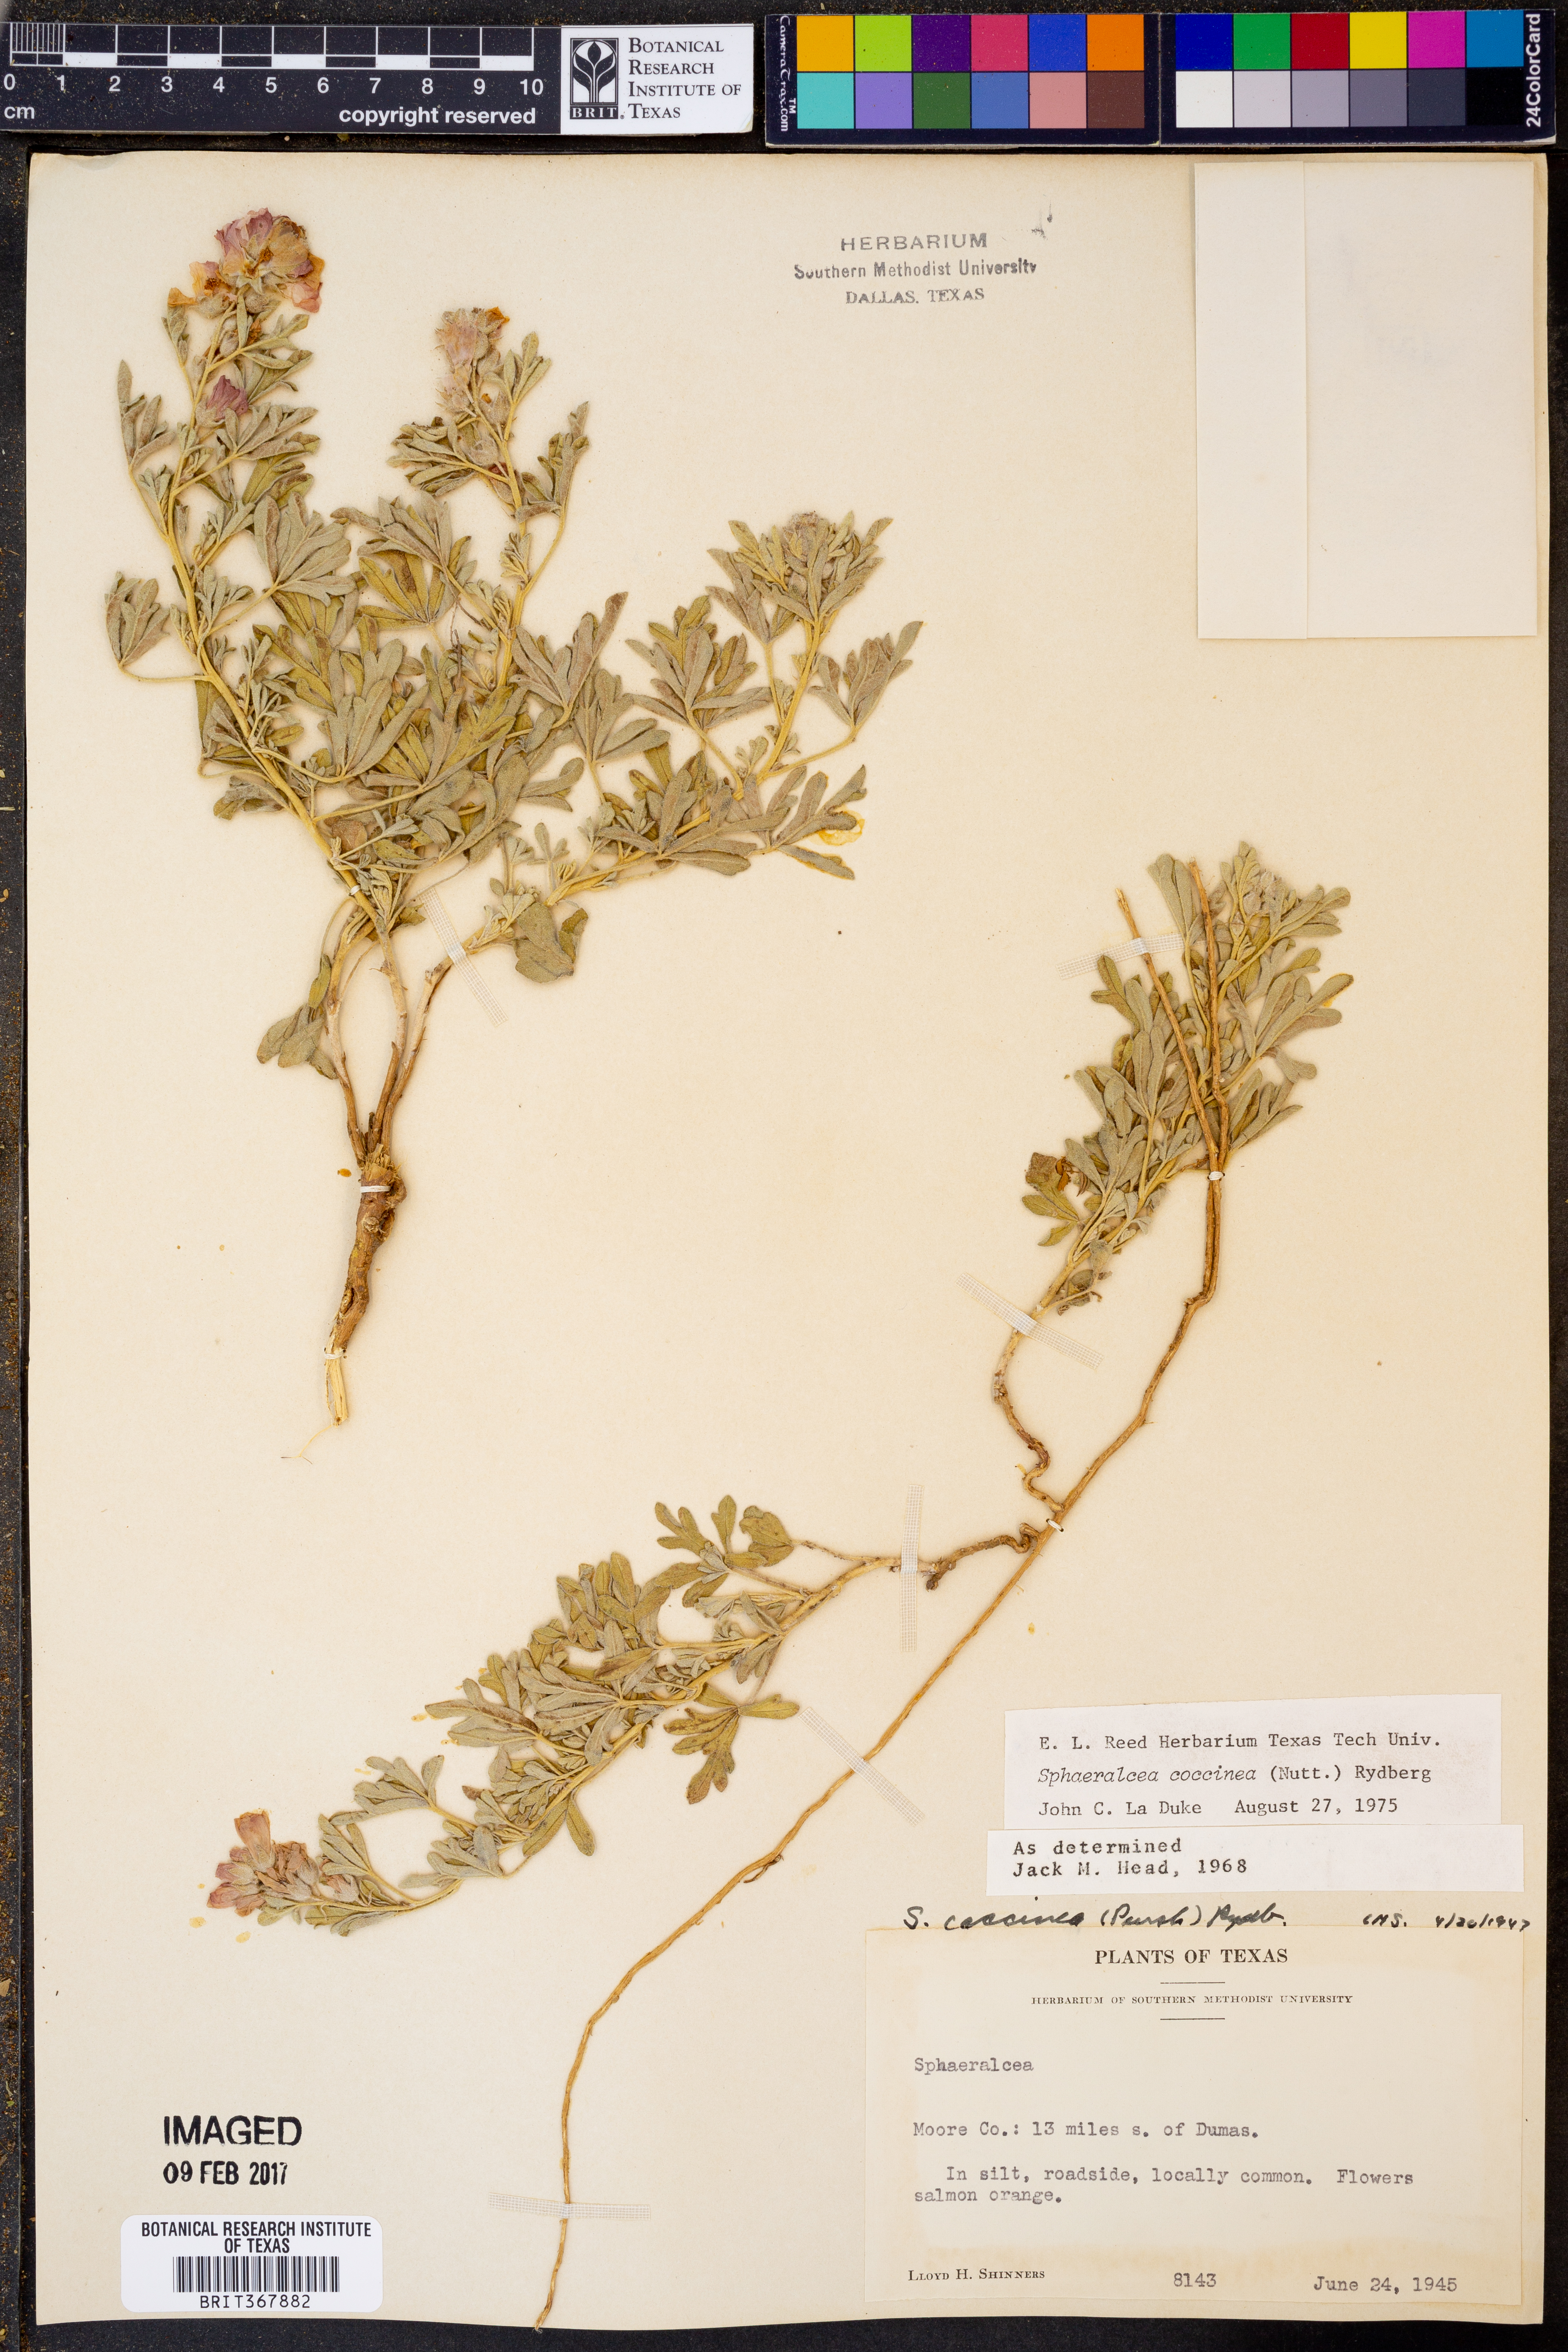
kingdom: Plantae
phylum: Tracheophyta
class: Magnoliopsida
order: Malvales
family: Malvaceae
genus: Sphaeralcea
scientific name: Sphaeralcea coccinea
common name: Moss-rose
